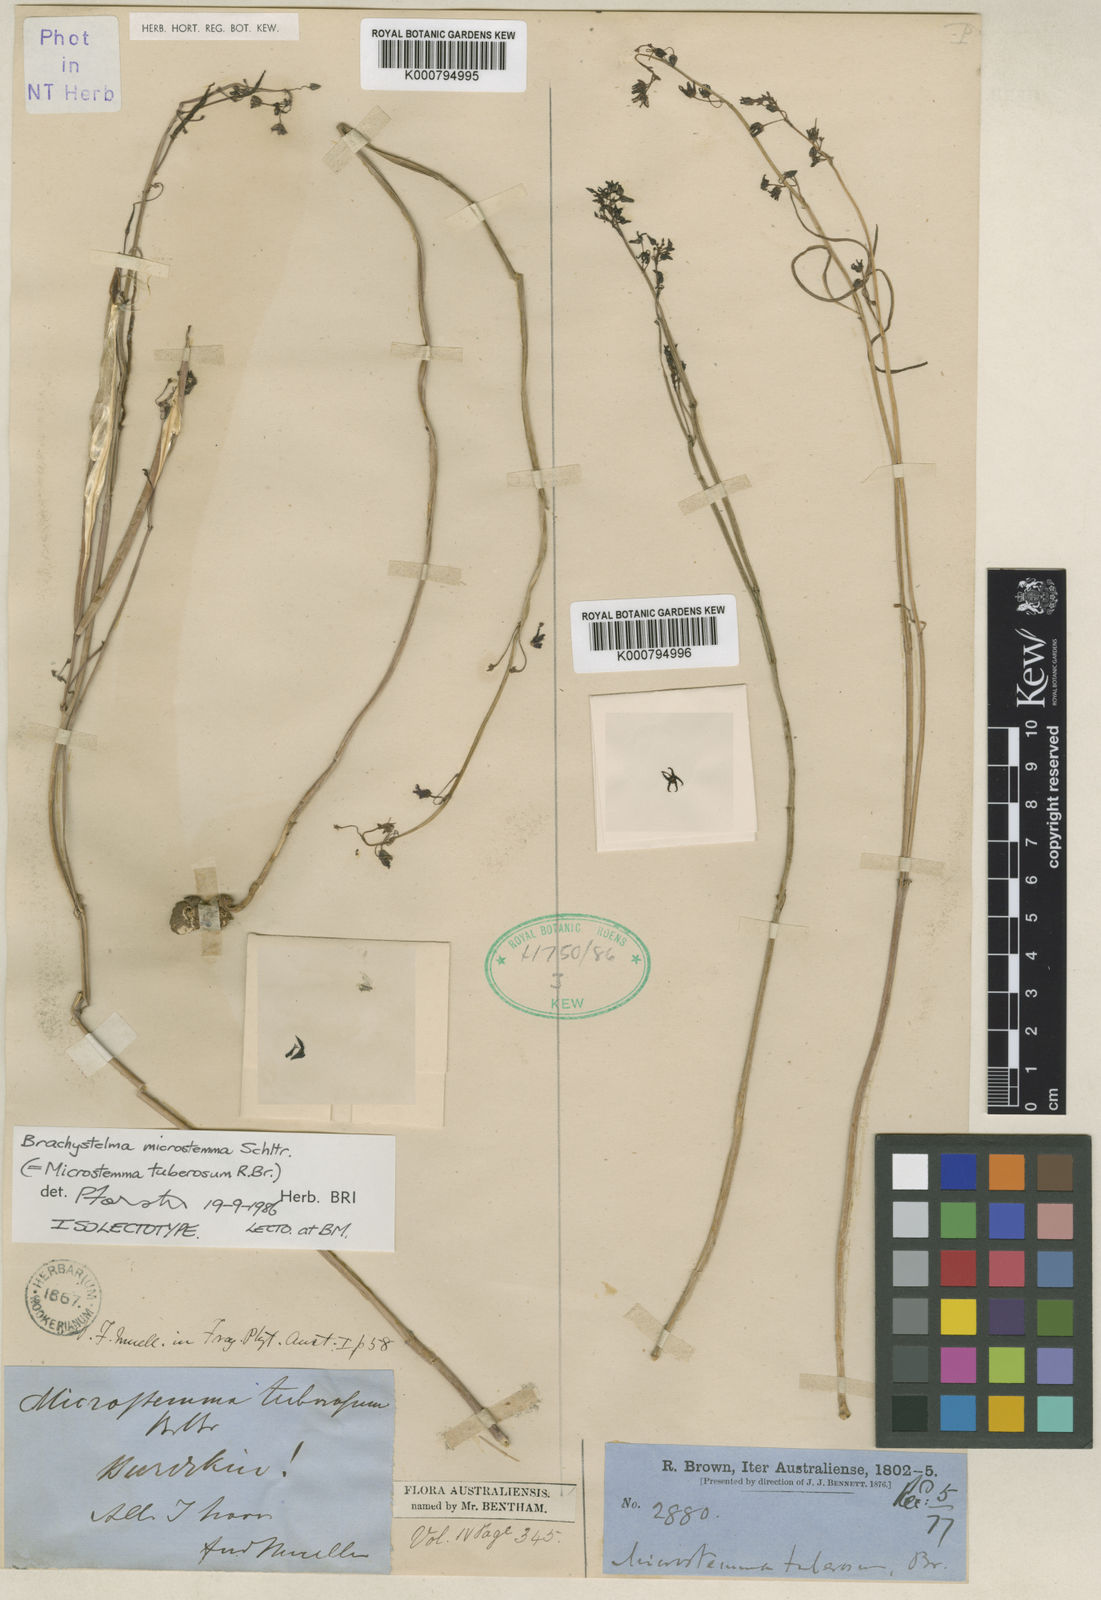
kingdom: Plantae
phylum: Tracheophyta
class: Magnoliopsida
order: Gentianales
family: Apocynaceae
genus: Ceropegia
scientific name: Ceropegia glabriflora
